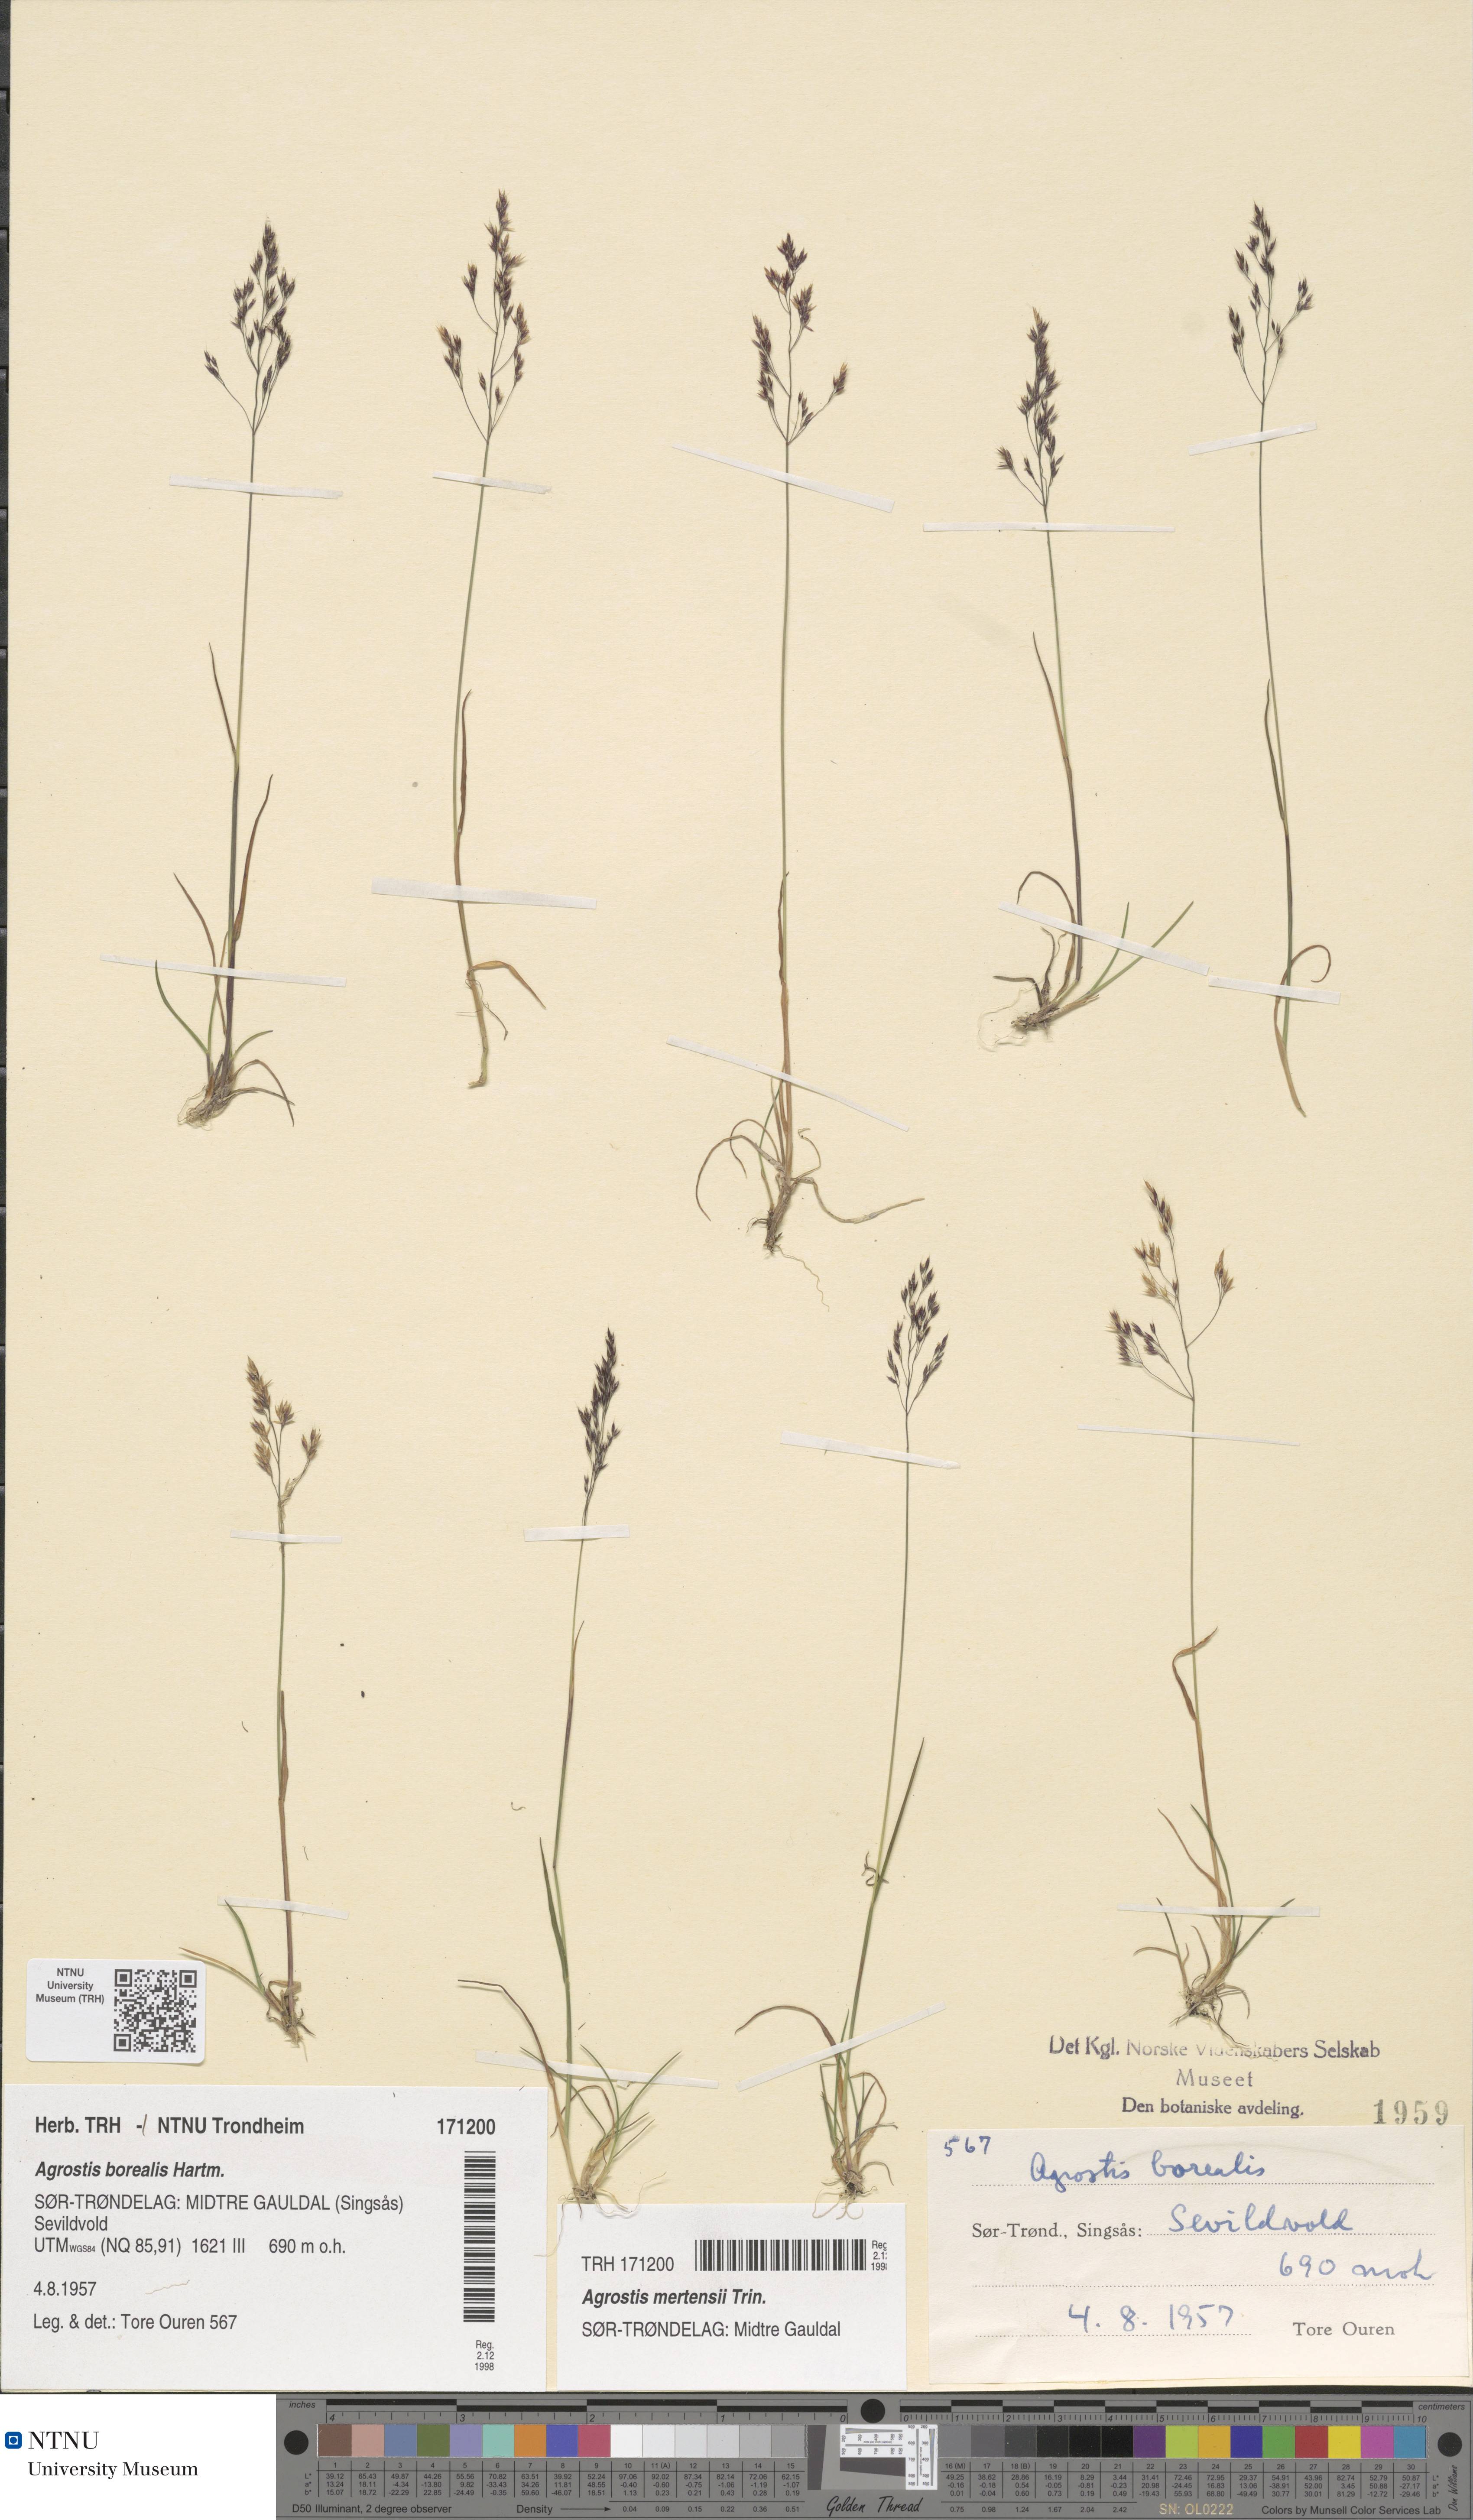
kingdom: Plantae
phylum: Tracheophyta
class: Liliopsida
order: Poales
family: Poaceae
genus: Agrostis
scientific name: Agrostis mertensii
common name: Northern bent
